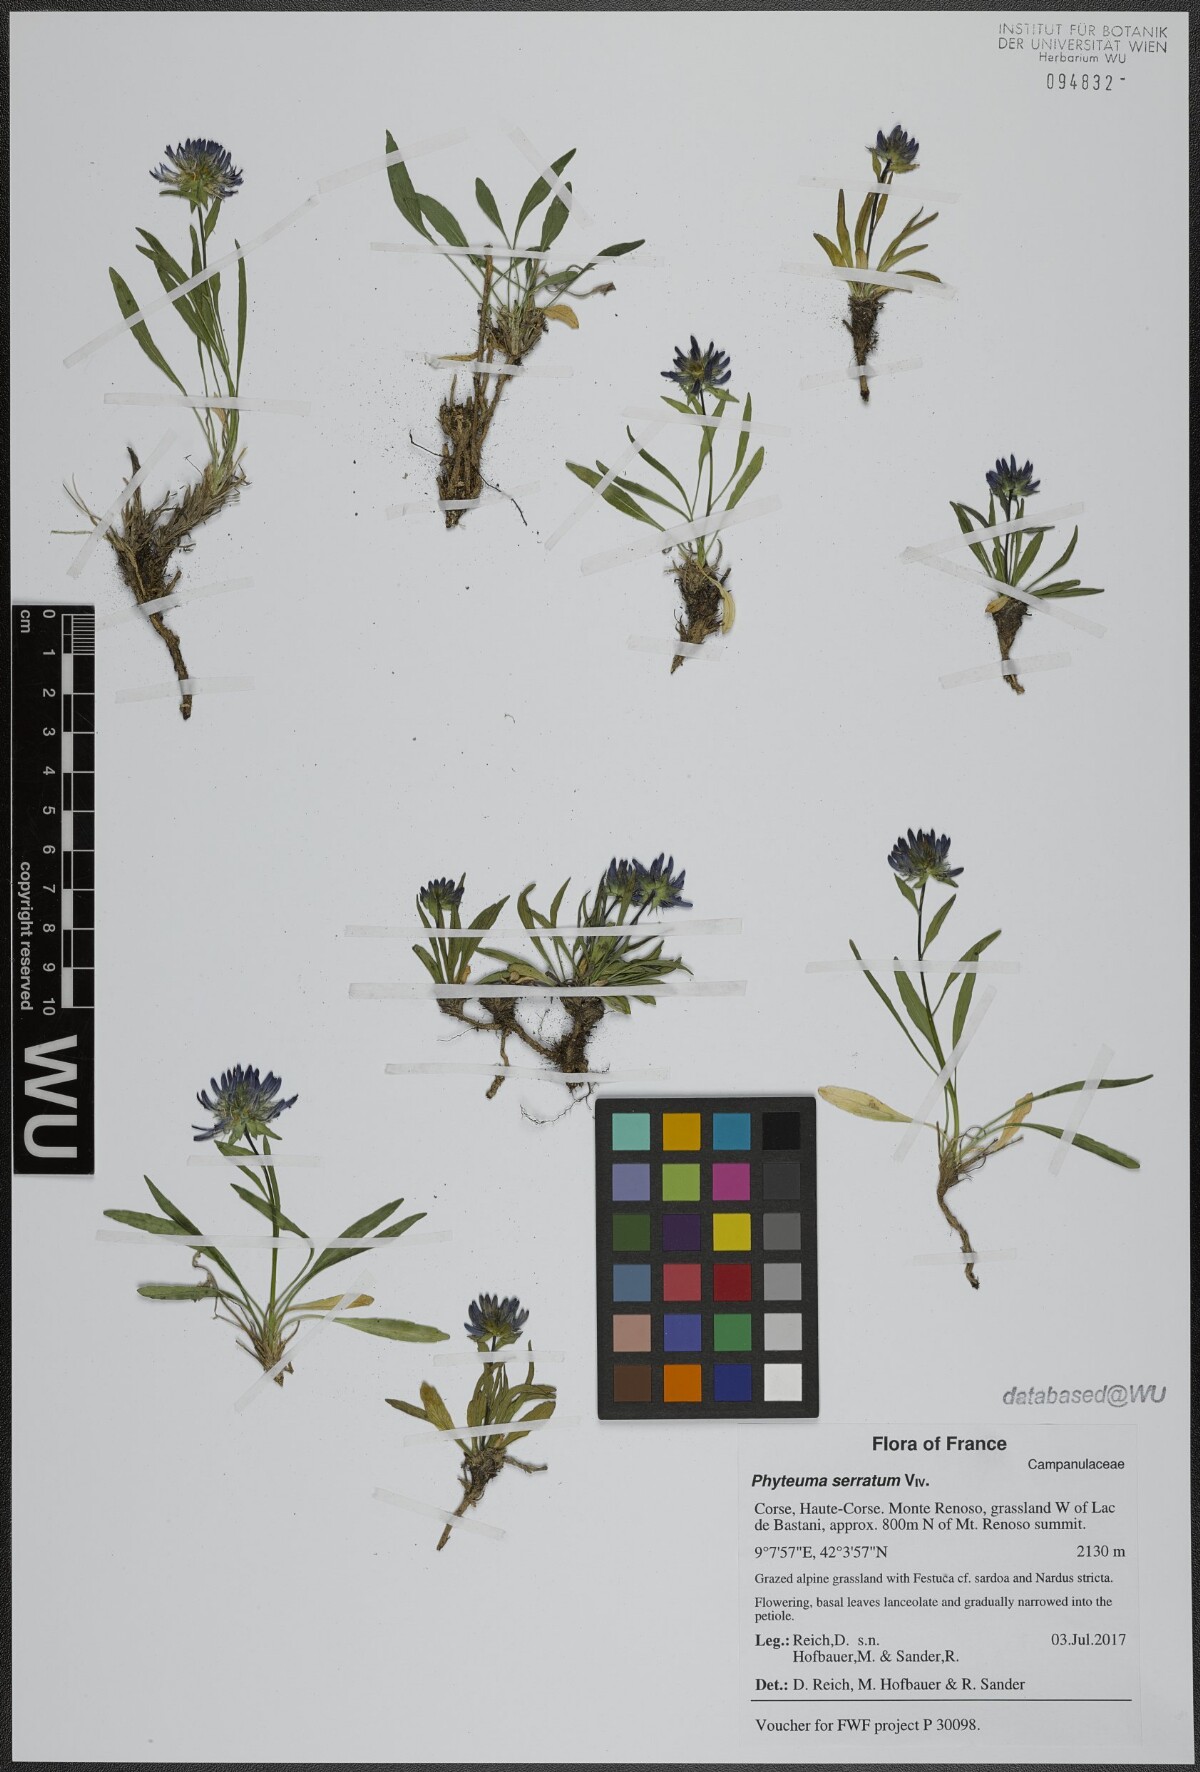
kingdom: Plantae
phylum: Tracheophyta
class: Magnoliopsida
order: Asterales
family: Campanulaceae
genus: Phyteuma
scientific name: Phyteuma serratum
